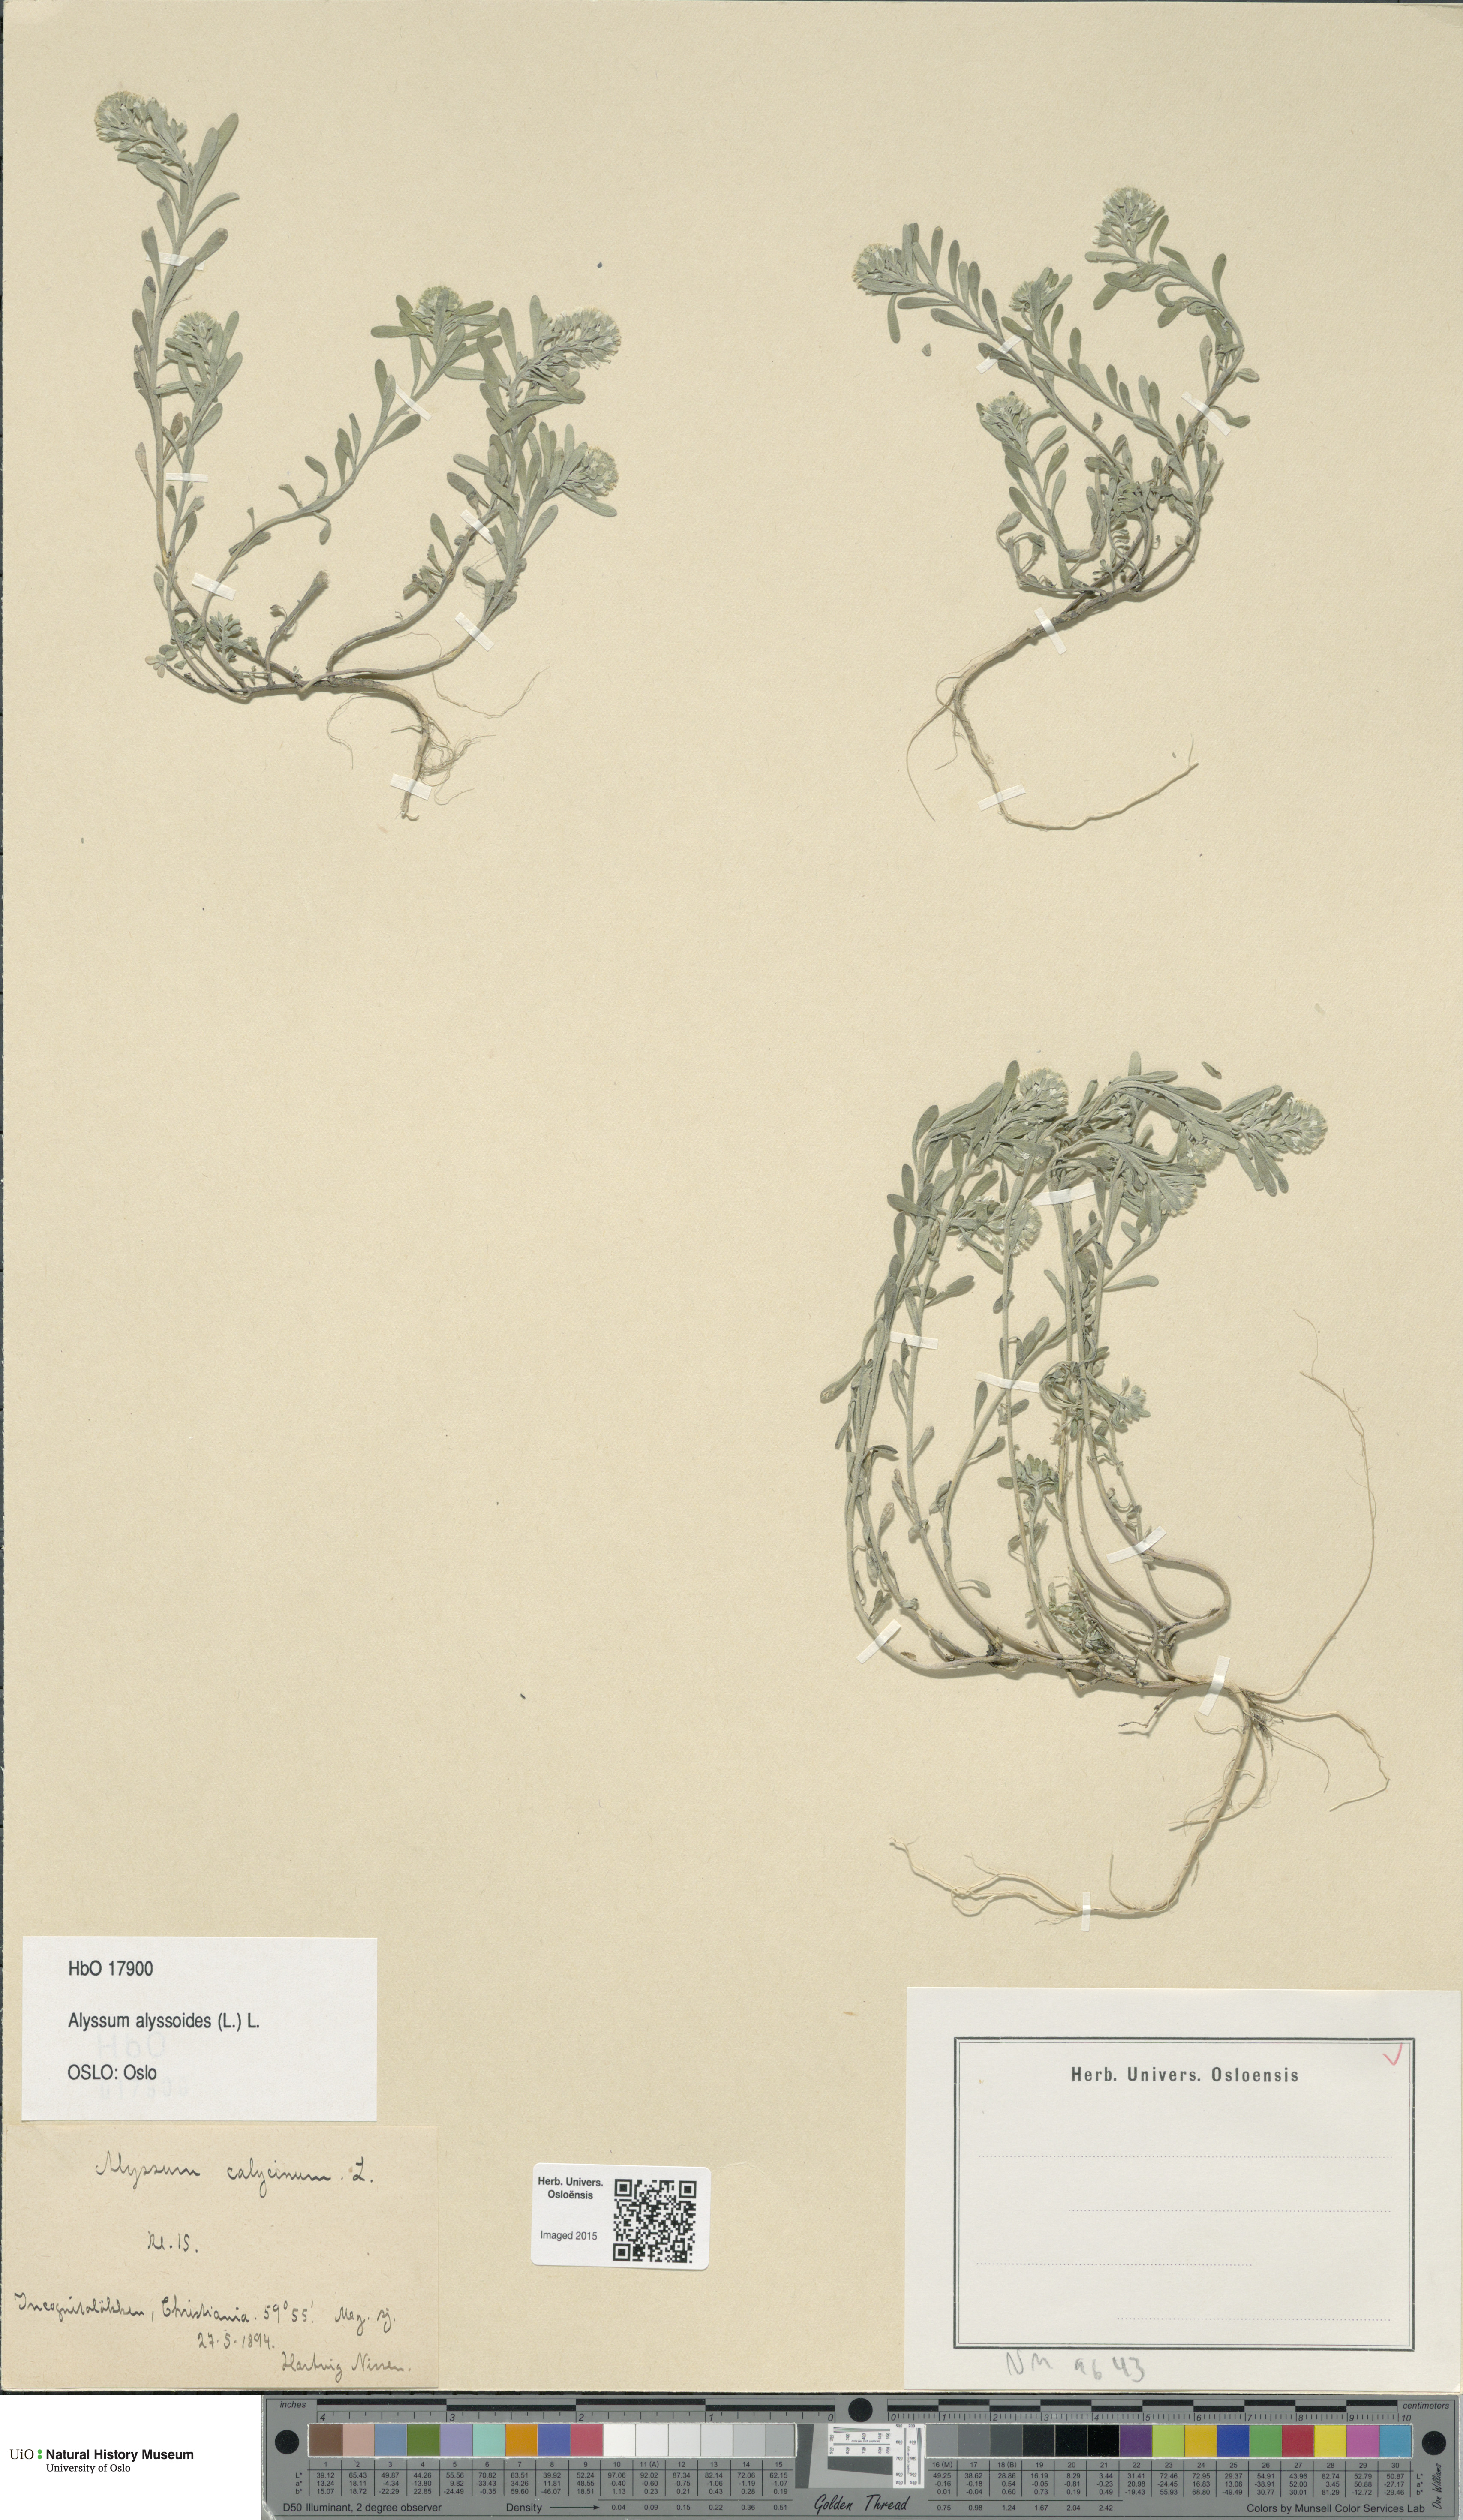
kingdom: Plantae
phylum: Tracheophyta
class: Magnoliopsida
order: Brassicales
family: Brassicaceae
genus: Alyssum
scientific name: Alyssum alyssoides
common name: Small alison
